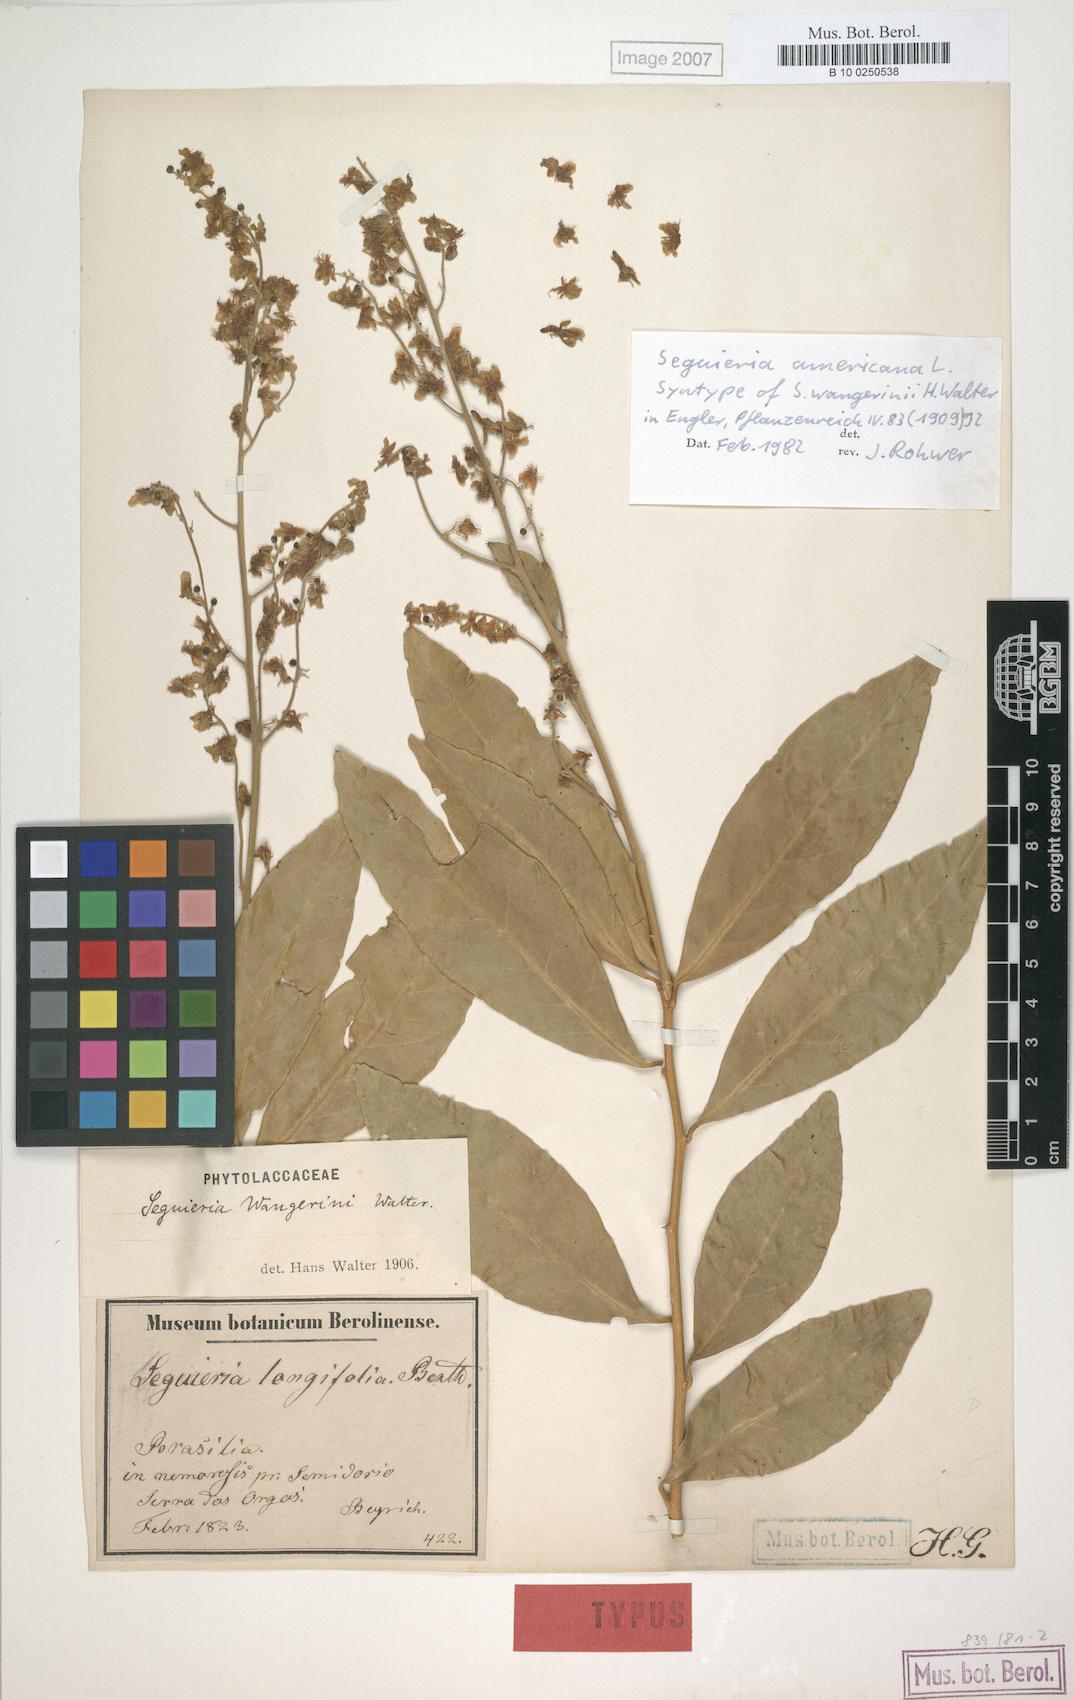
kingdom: Plantae
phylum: Tracheophyta
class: Magnoliopsida
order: Caryophyllales
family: Phytolaccaceae
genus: Seguieria
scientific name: Seguieria americana
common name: American seguieria
